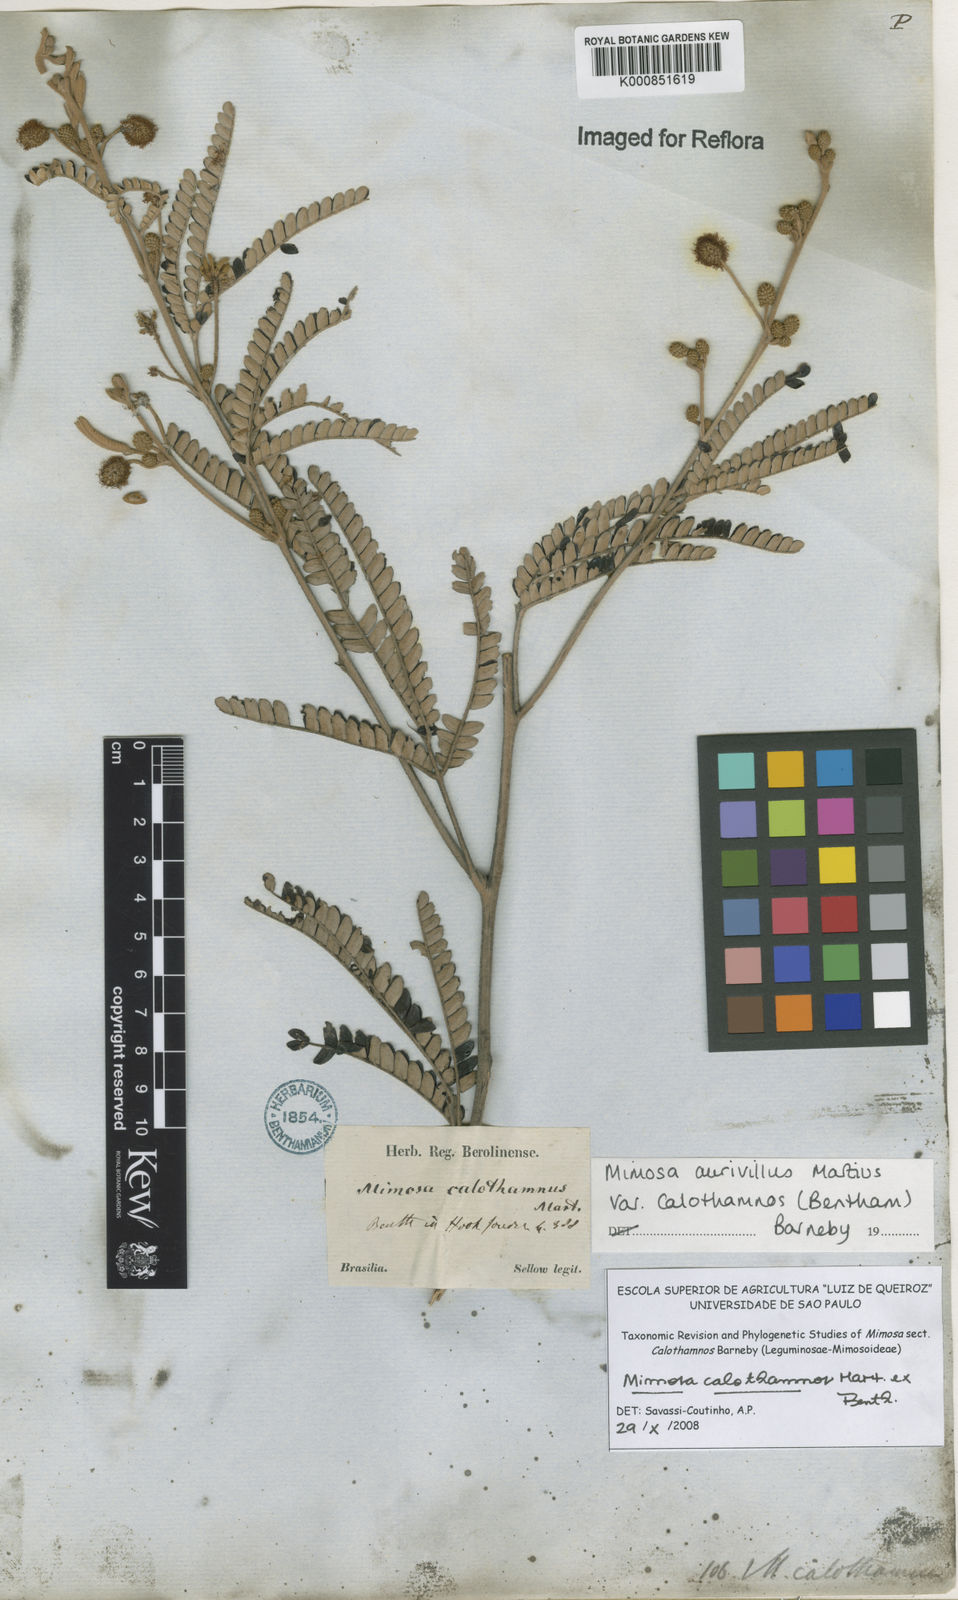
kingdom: Plantae
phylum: Tracheophyta
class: Magnoliopsida
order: Fabales
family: Fabaceae
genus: Mimosa
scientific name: Mimosa aurivillus
